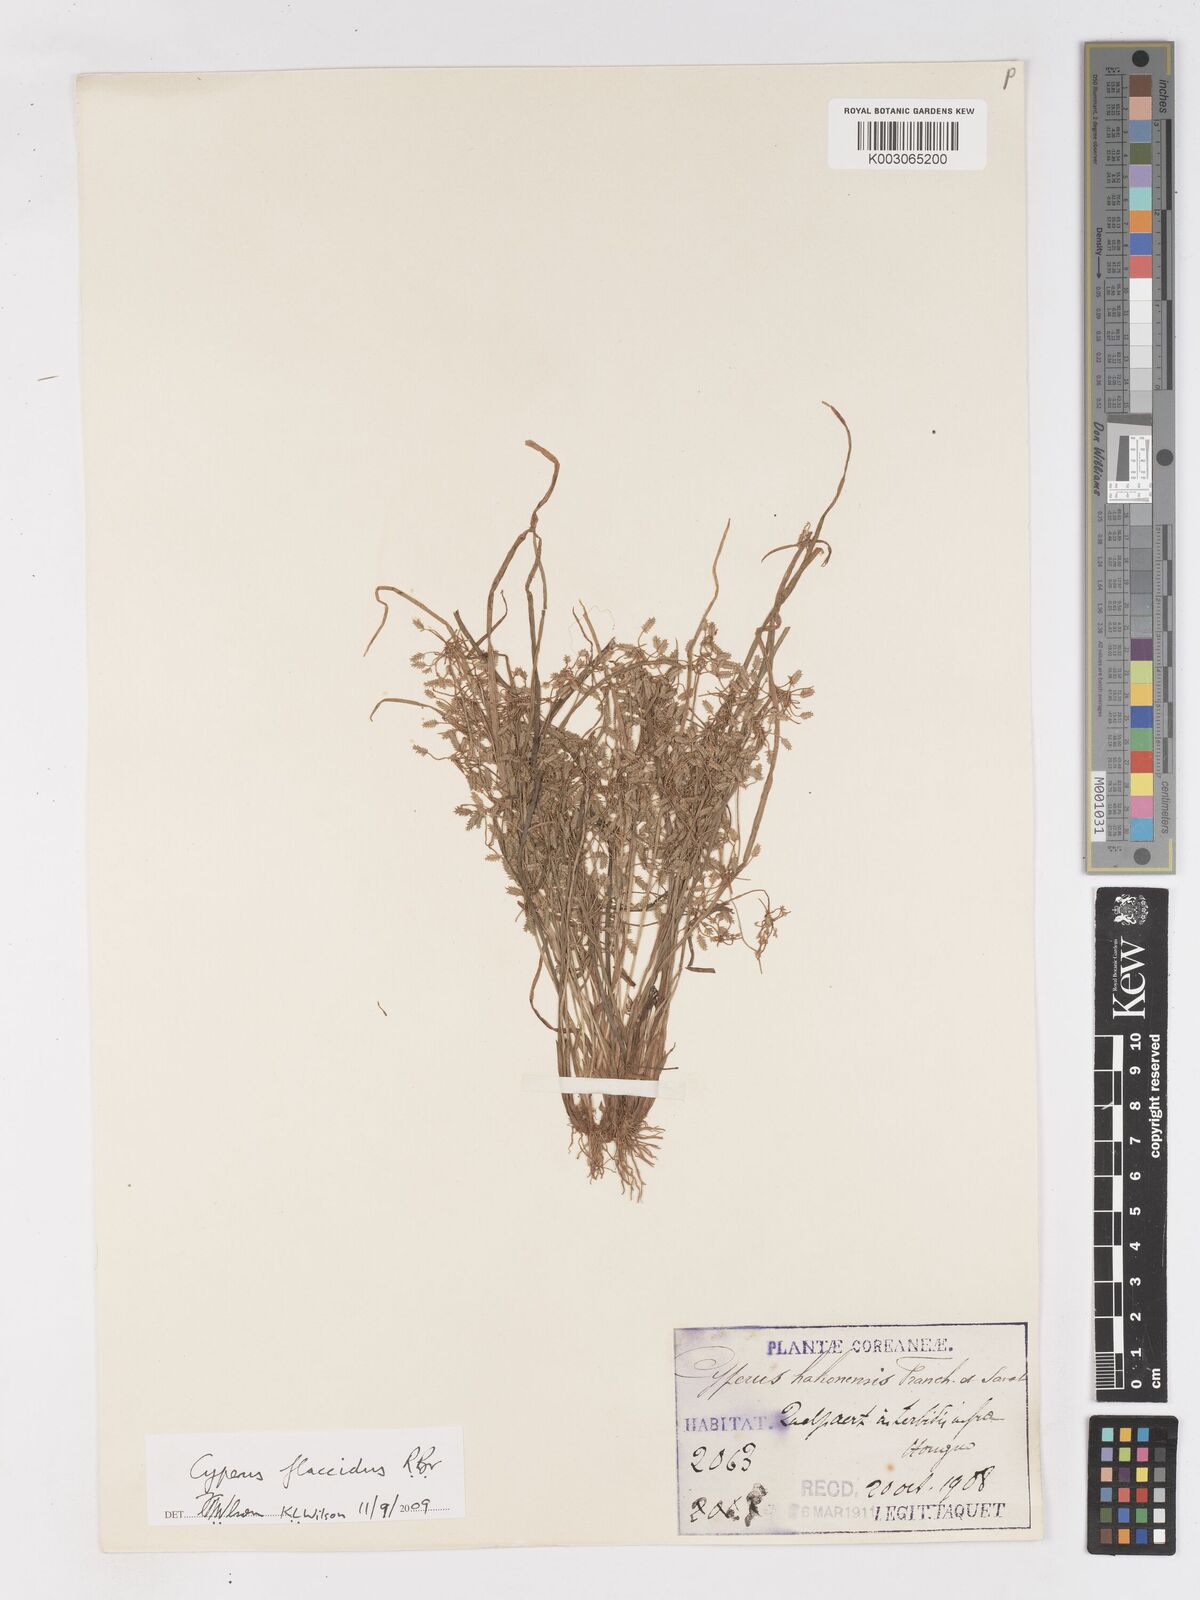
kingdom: Plantae
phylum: Tracheophyta
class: Liliopsida
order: Poales
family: Cyperaceae
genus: Cyperus
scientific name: Cyperus flaccidus
